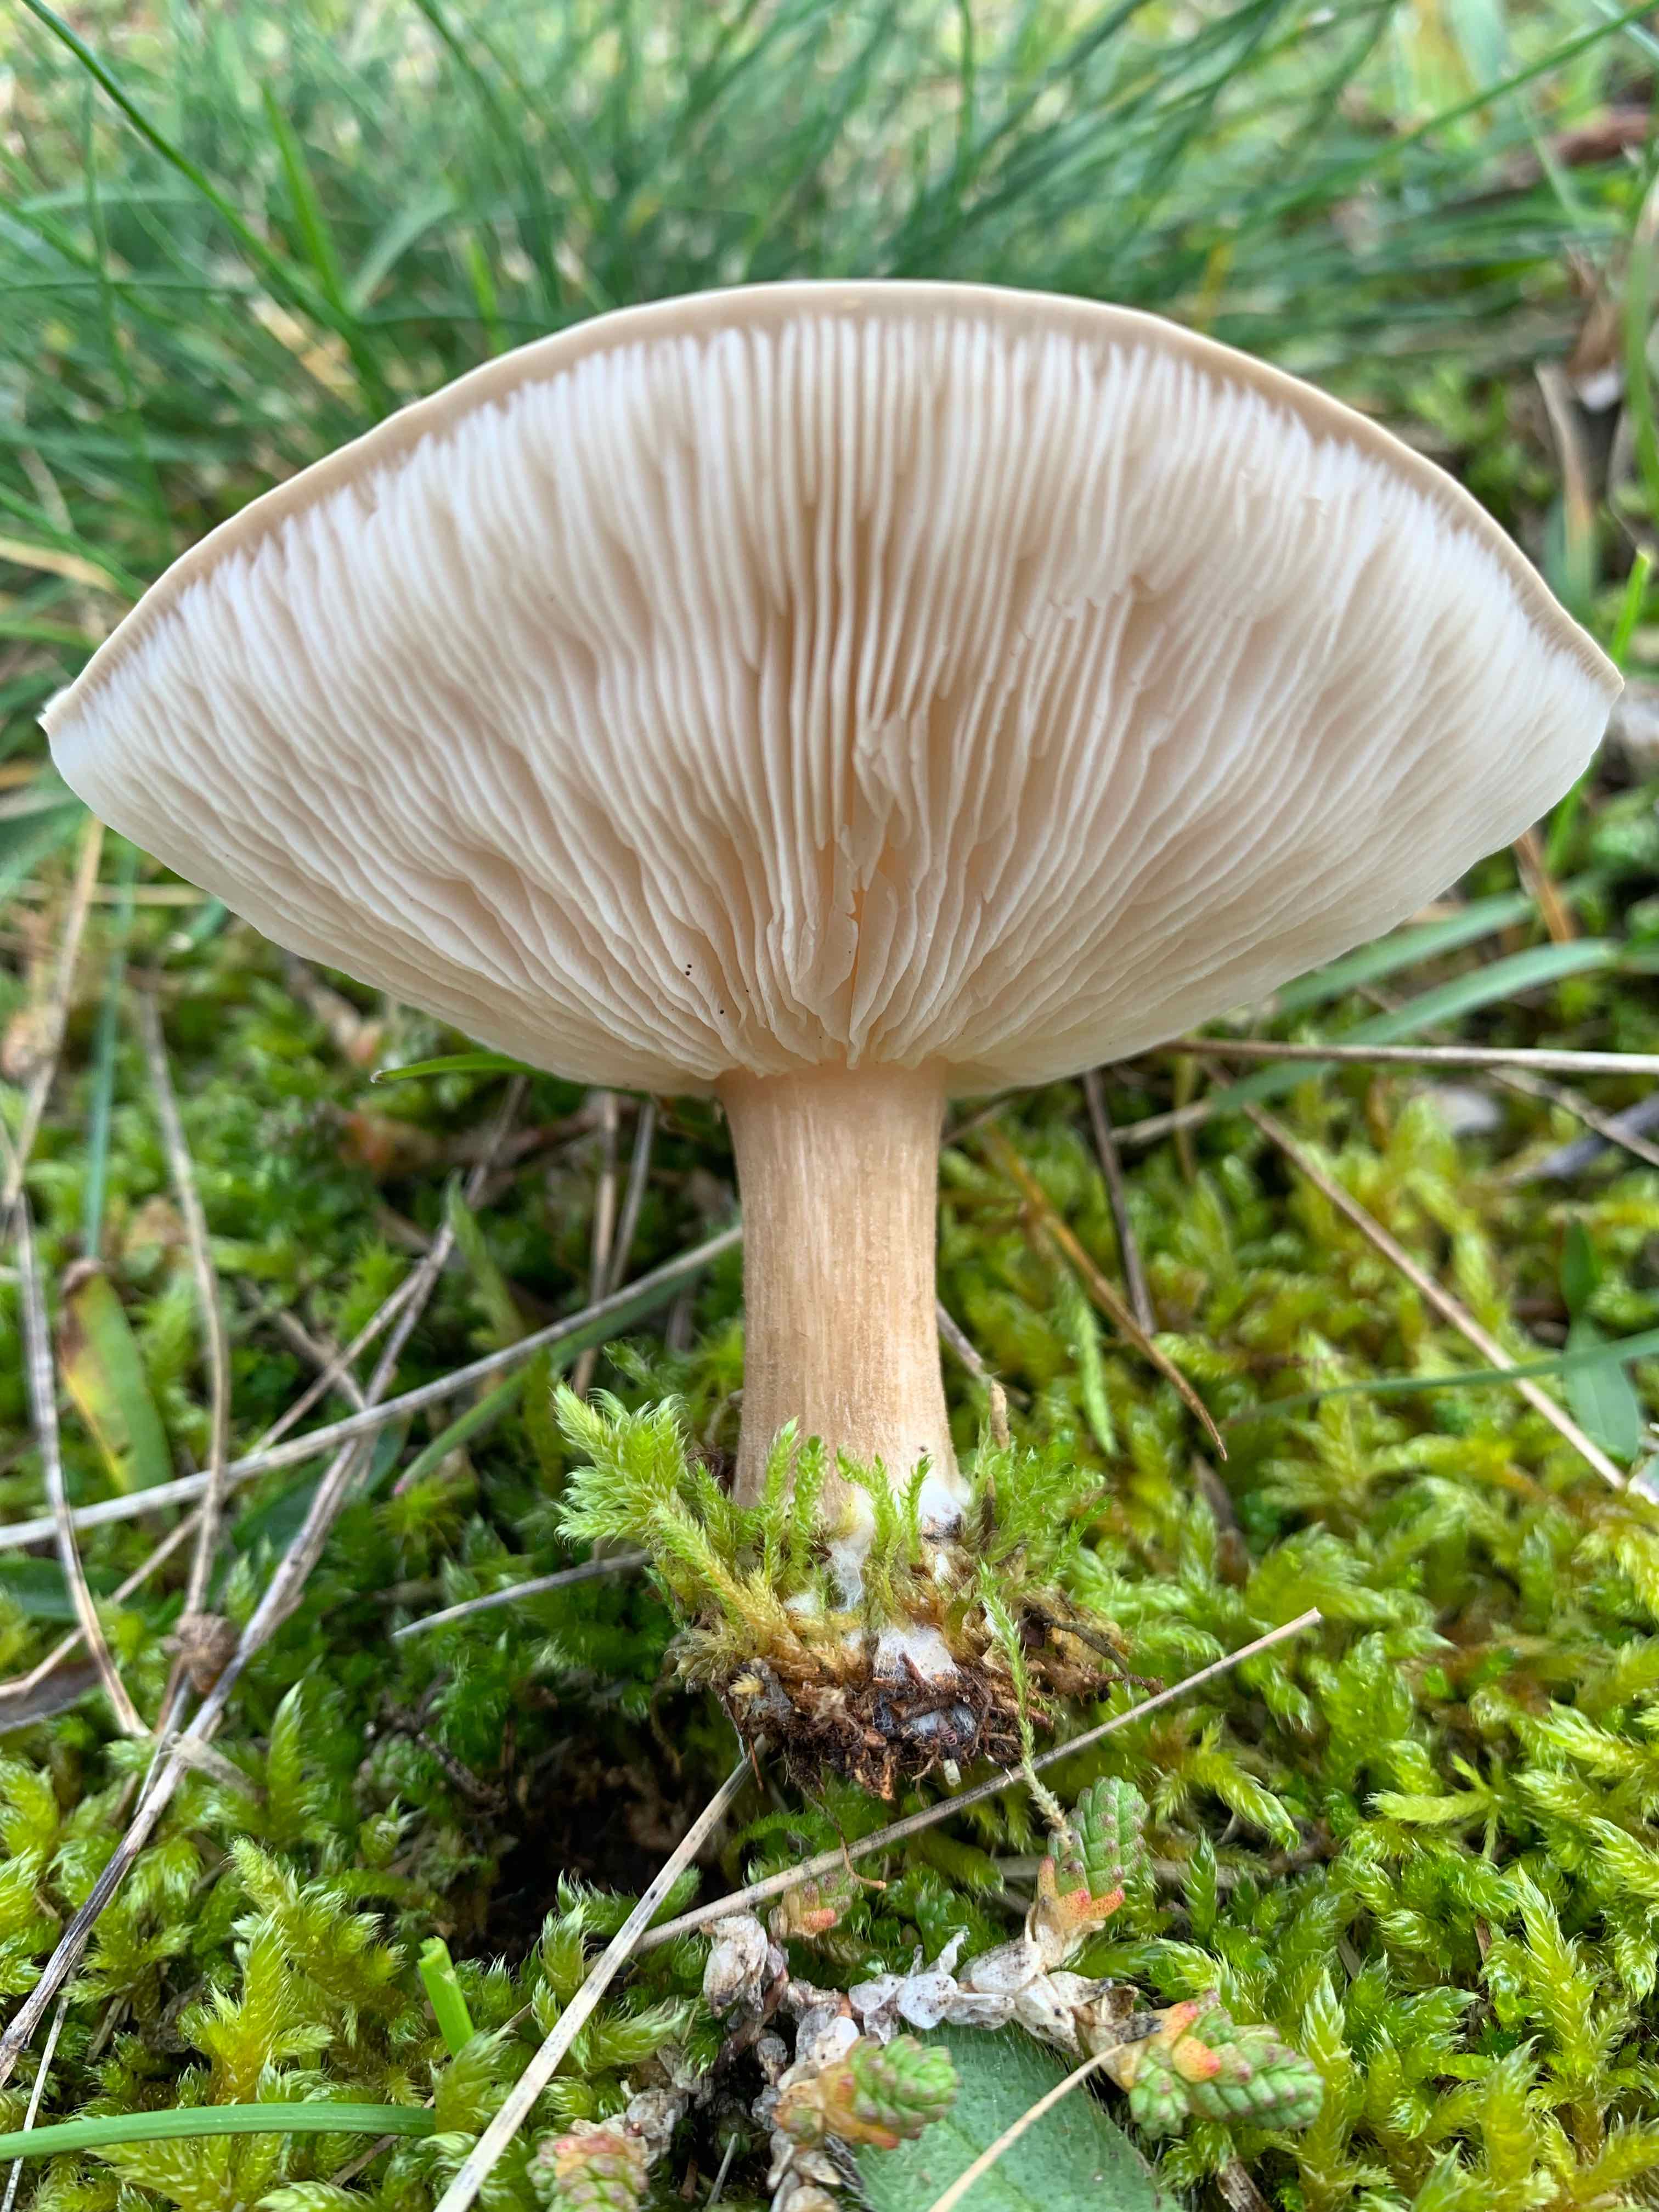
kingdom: Fungi
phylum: Basidiomycota
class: Agaricomycetes
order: Agaricales
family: Tricholomataceae
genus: Melanoleuca
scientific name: Melanoleuca
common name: munkehat
